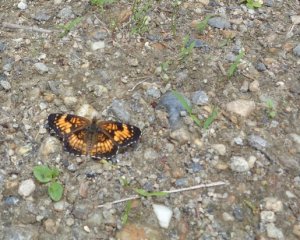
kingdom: Animalia
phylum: Arthropoda
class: Insecta
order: Lepidoptera
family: Nymphalidae
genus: Chlosyne
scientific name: Chlosyne harrisii
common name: Harris's Checkerspot
